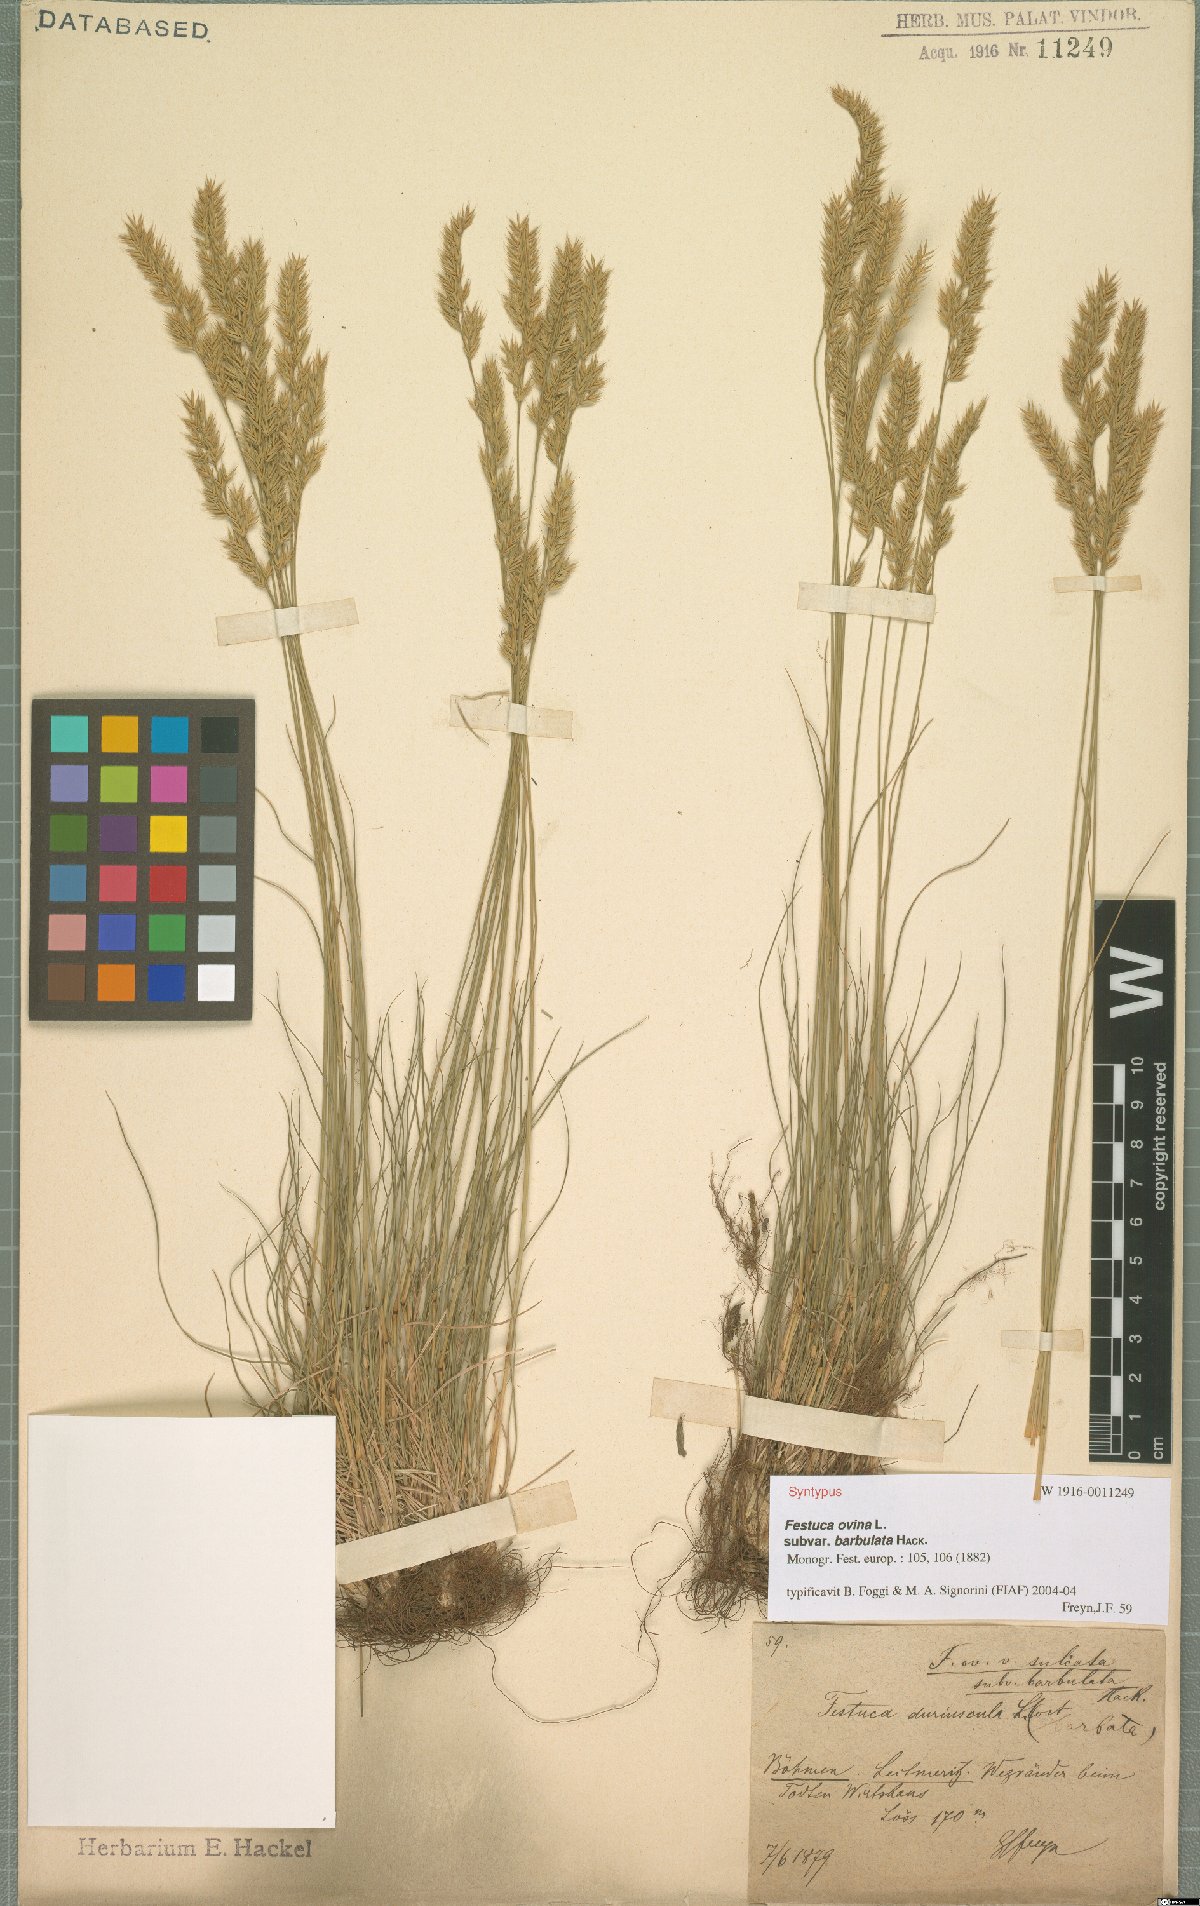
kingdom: Plantae
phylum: Tracheophyta
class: Liliopsida
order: Poales
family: Poaceae
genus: Festuca
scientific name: Festuca ovina
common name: Sheep fescue
